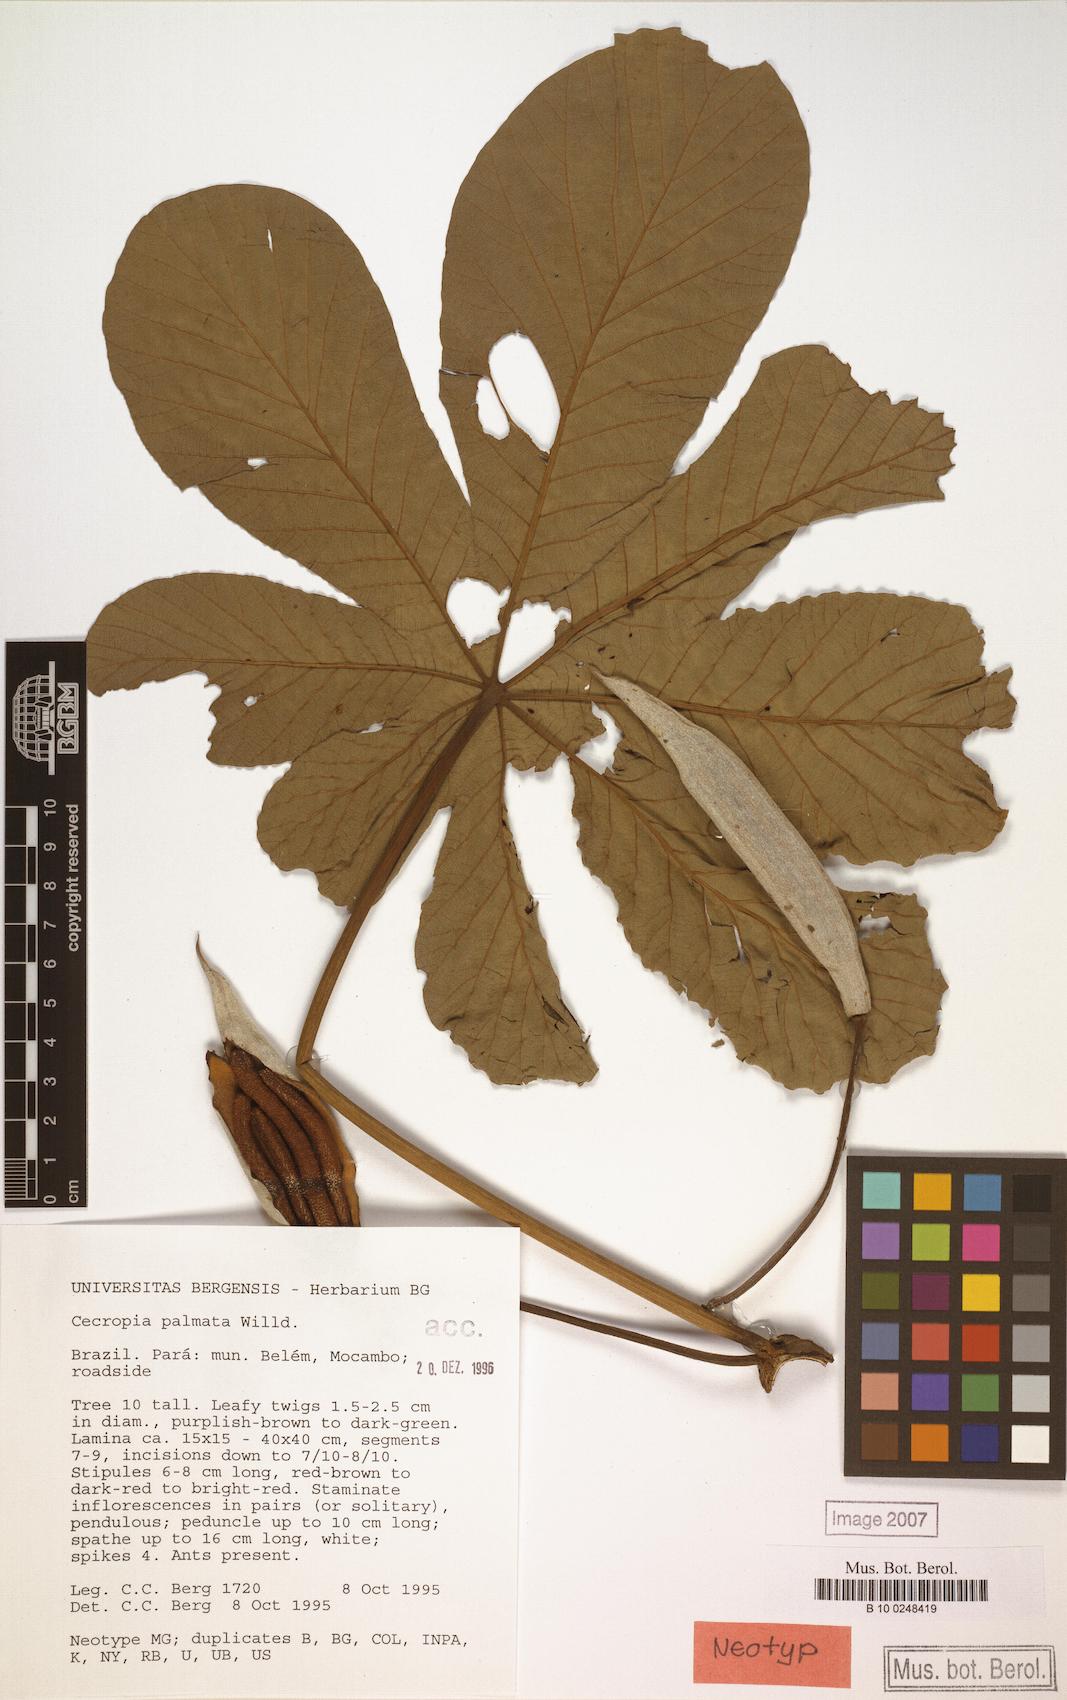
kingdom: Plantae
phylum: Tracheophyta
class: Magnoliopsida
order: Rosales
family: Urticaceae
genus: Cecropia
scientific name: Cecropia palmata
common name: Trumpet tree
